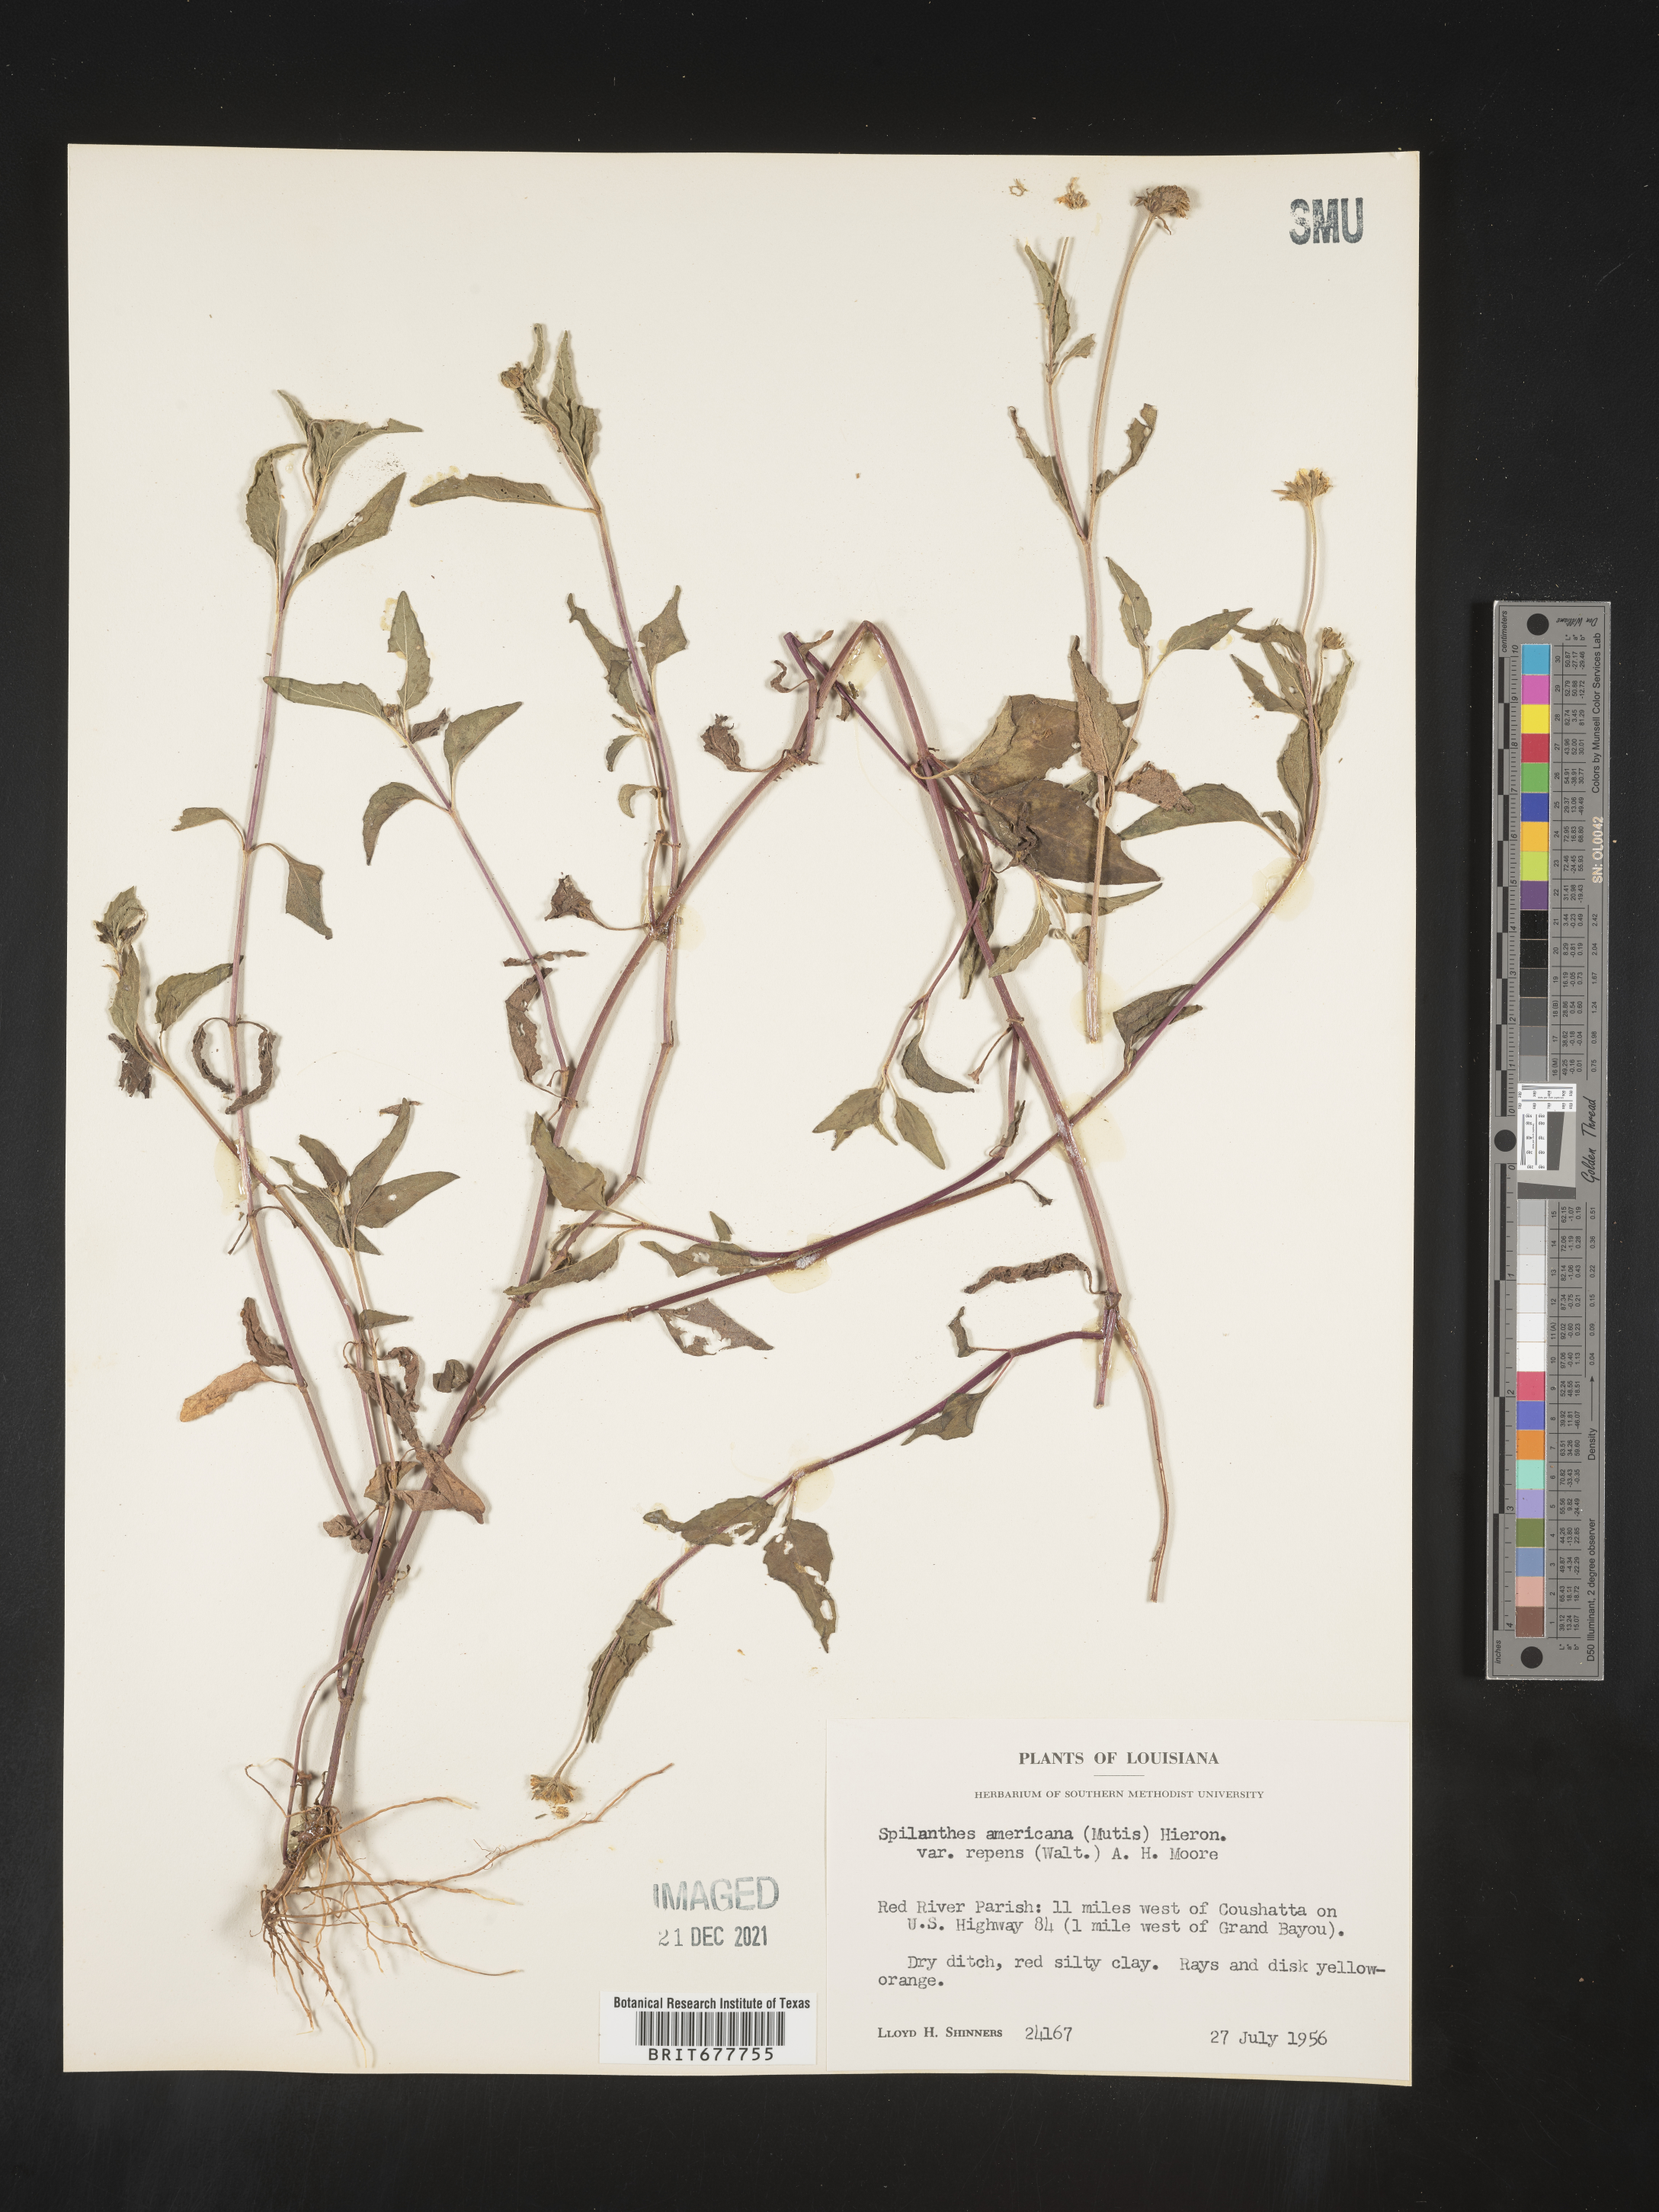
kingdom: Plantae
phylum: Tracheophyta
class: Magnoliopsida
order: Asterales
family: Asteraceae
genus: Spilanthes
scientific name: Spilanthes
